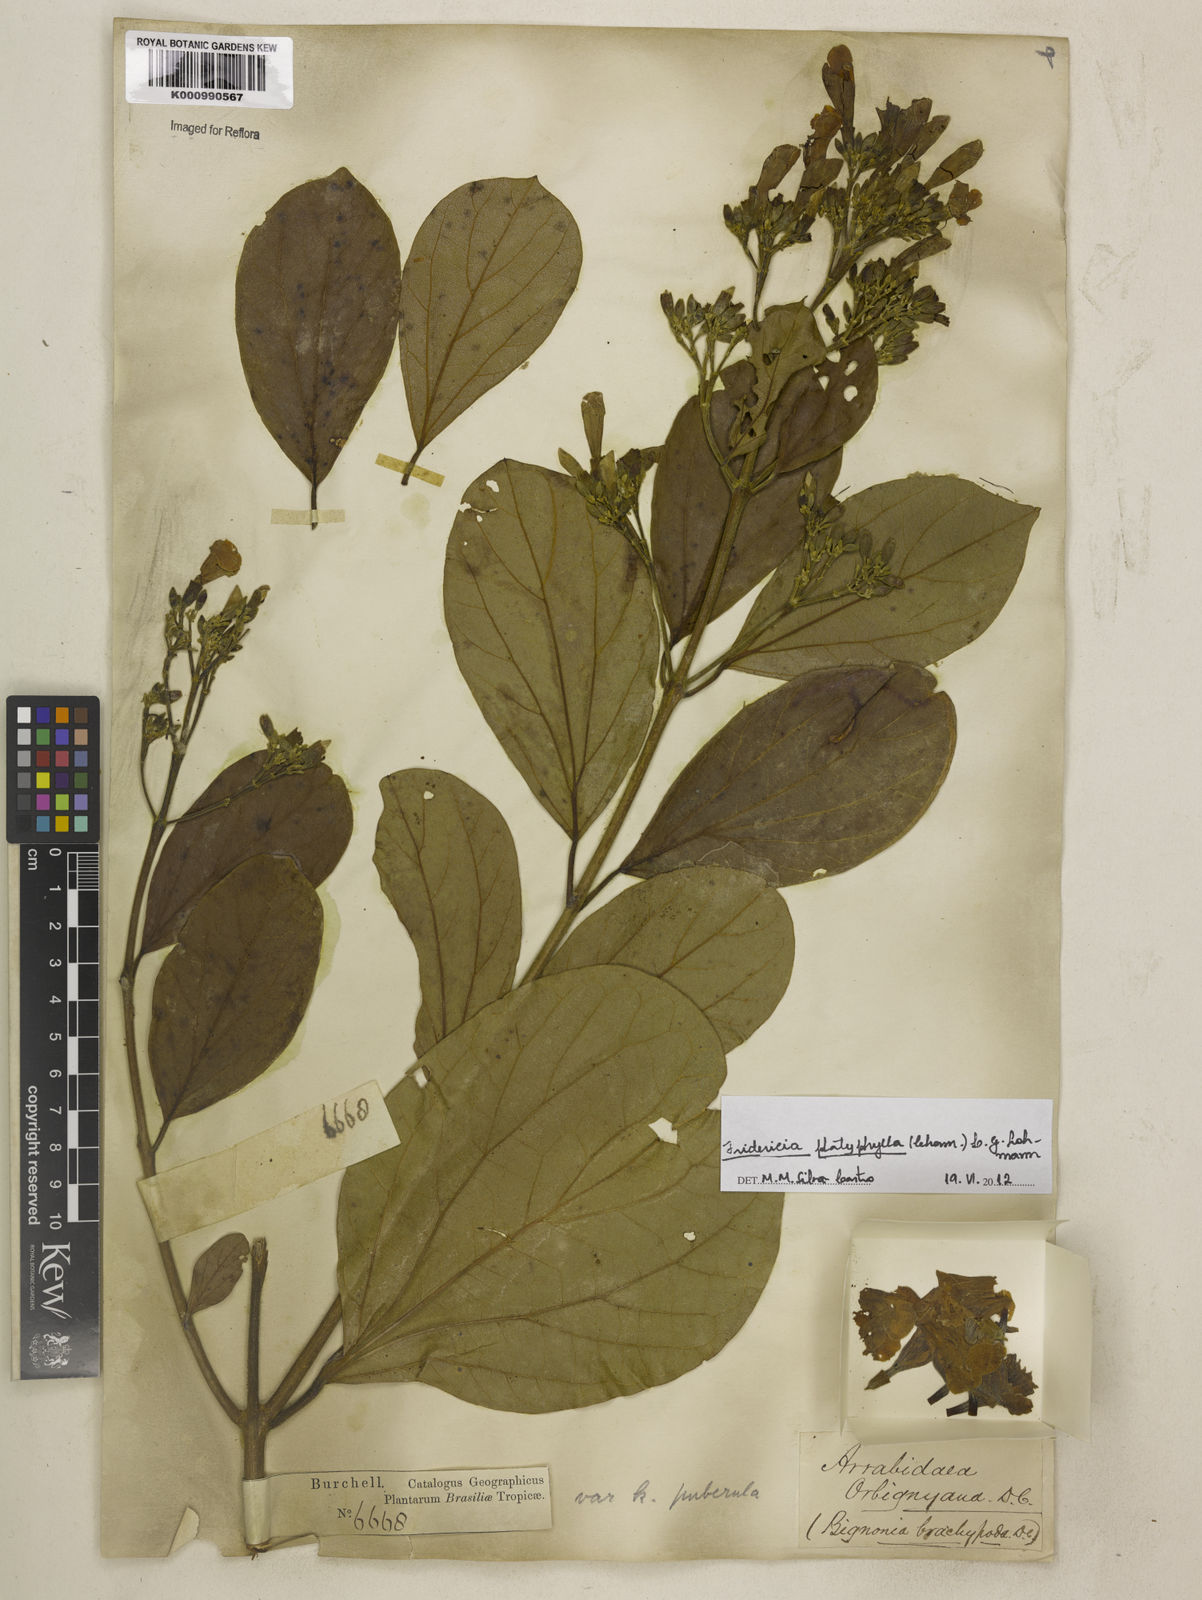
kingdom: Plantae
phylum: Tracheophyta
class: Magnoliopsida
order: Lamiales
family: Bignoniaceae
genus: Fridericia
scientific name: Fridericia platyphylla
